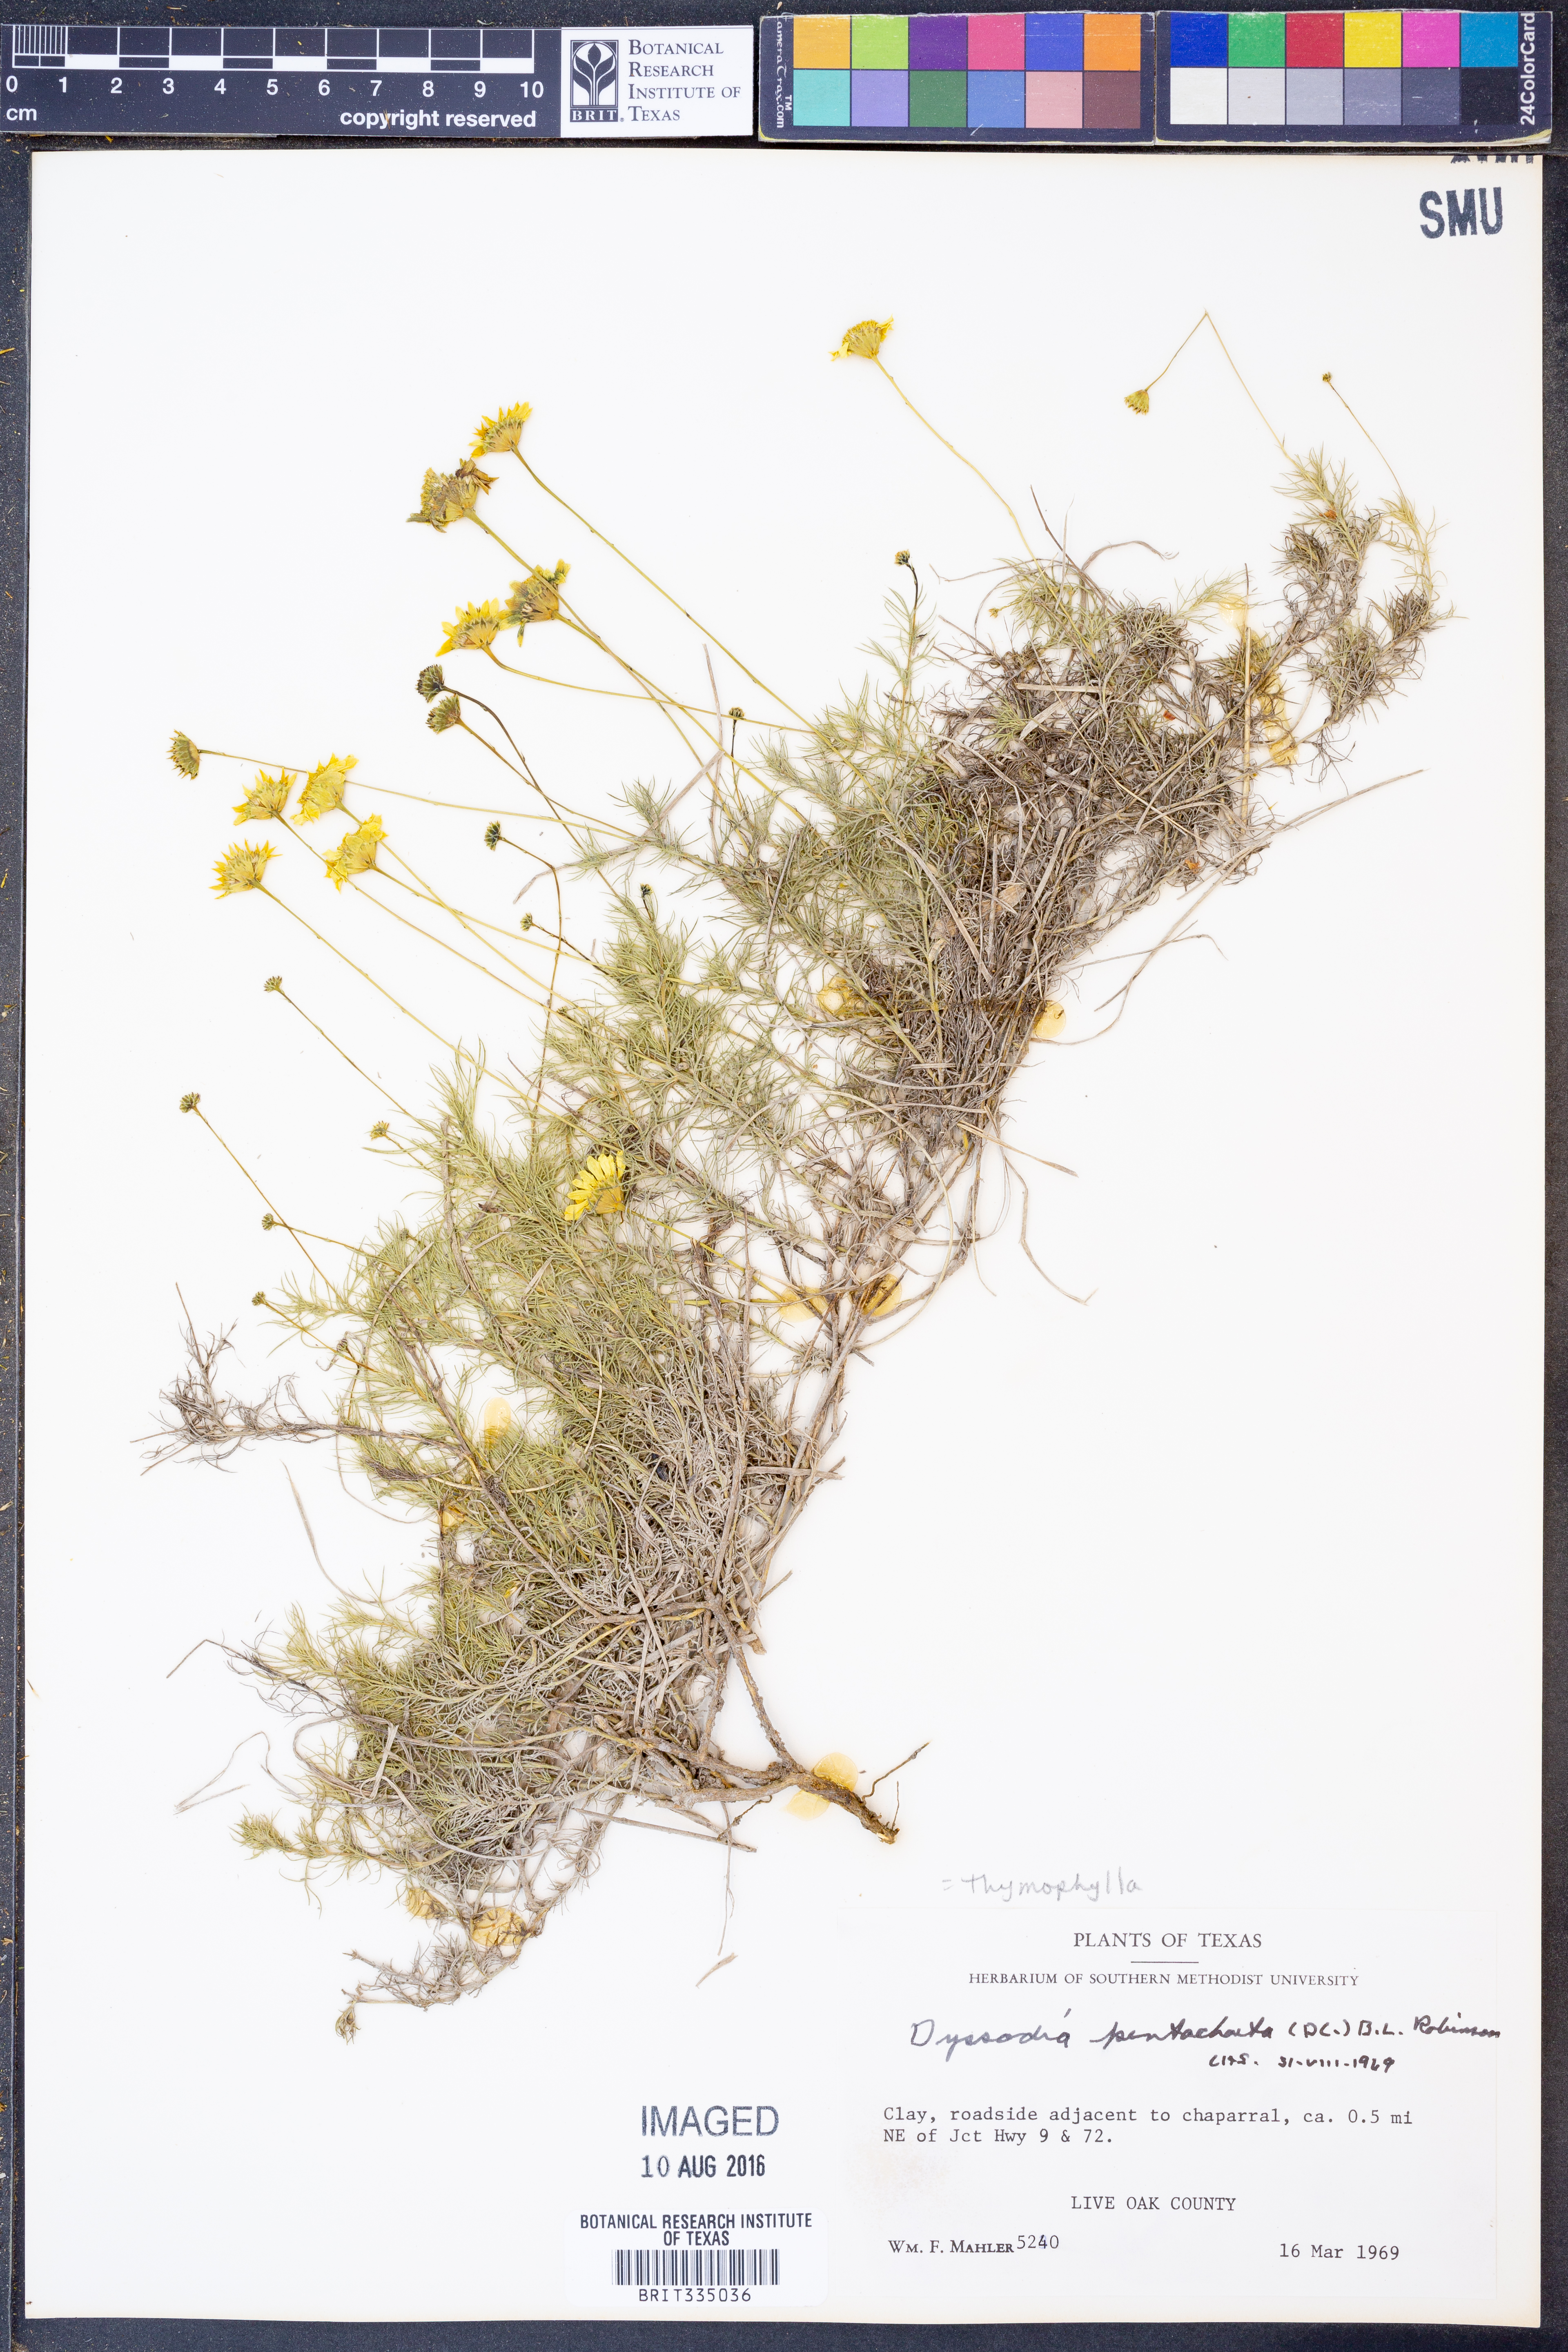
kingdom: Plantae
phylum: Tracheophyta
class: Magnoliopsida
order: Asterales
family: Asteraceae
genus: Thymophylla
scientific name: Thymophylla pentachaeta
